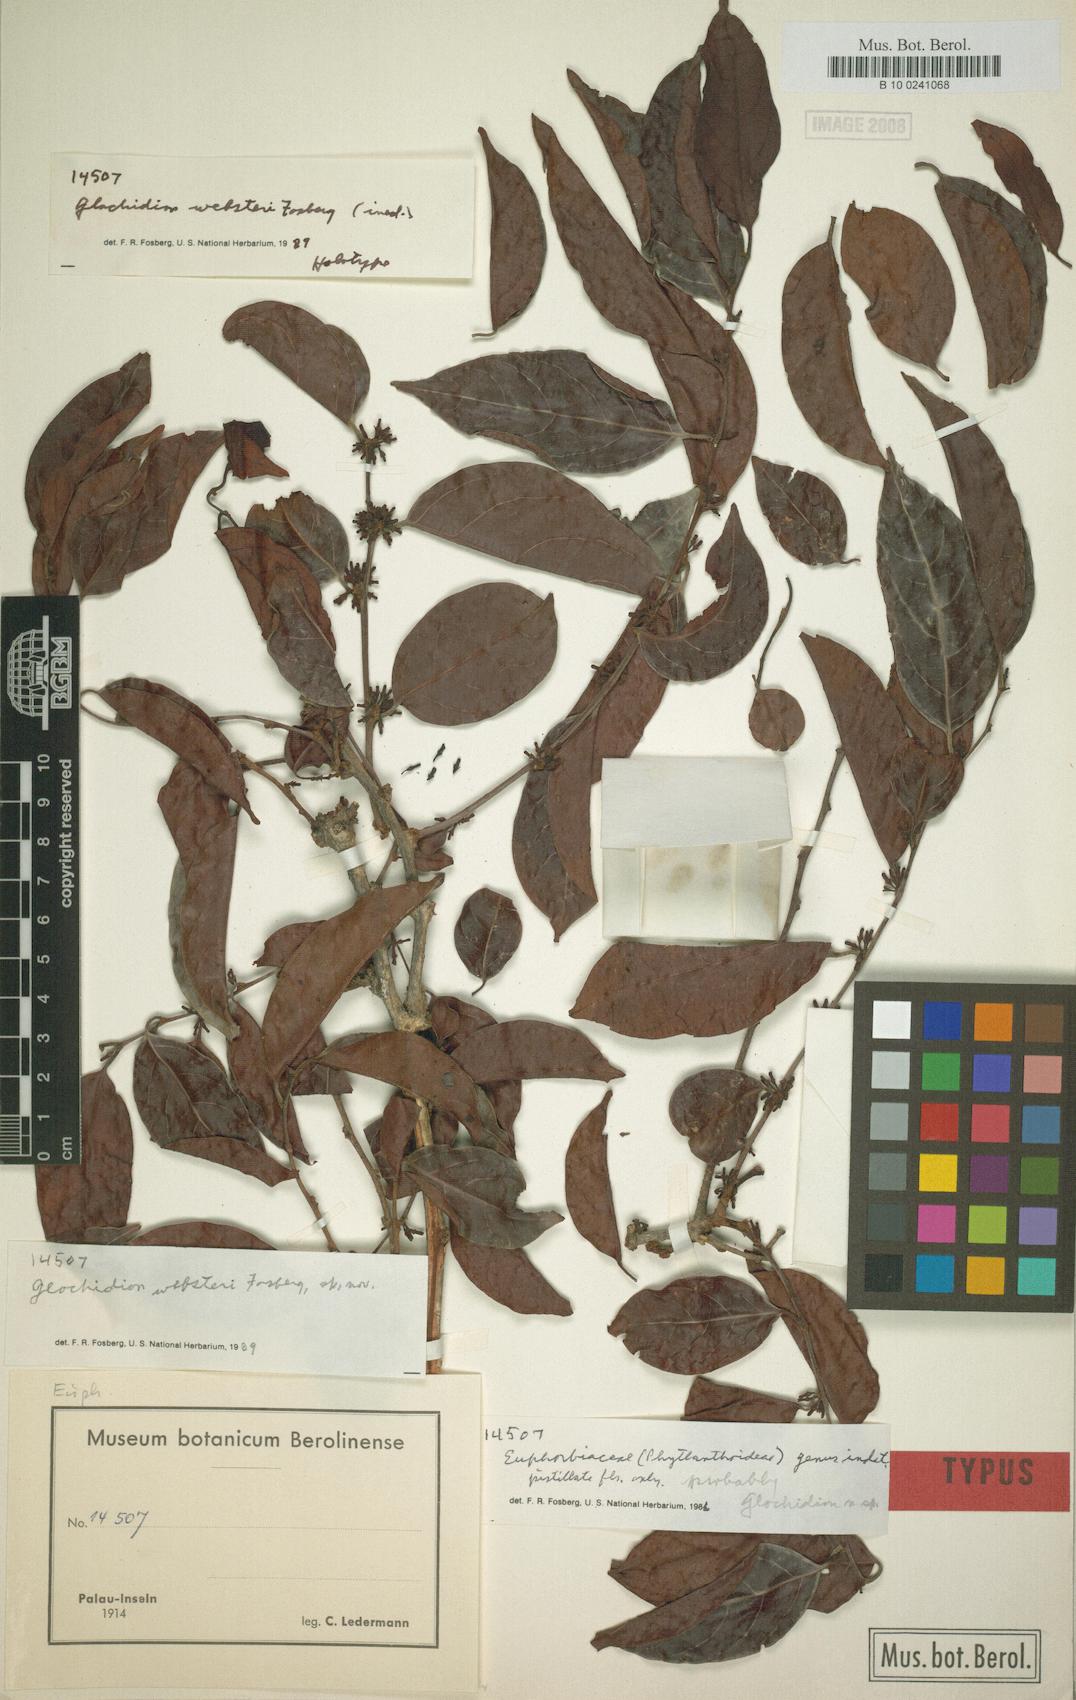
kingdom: Plantae
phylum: Tracheophyta
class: Magnoliopsida
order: Malpighiales
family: Phyllanthaceae
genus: Glochidion
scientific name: Glochidion websteri
